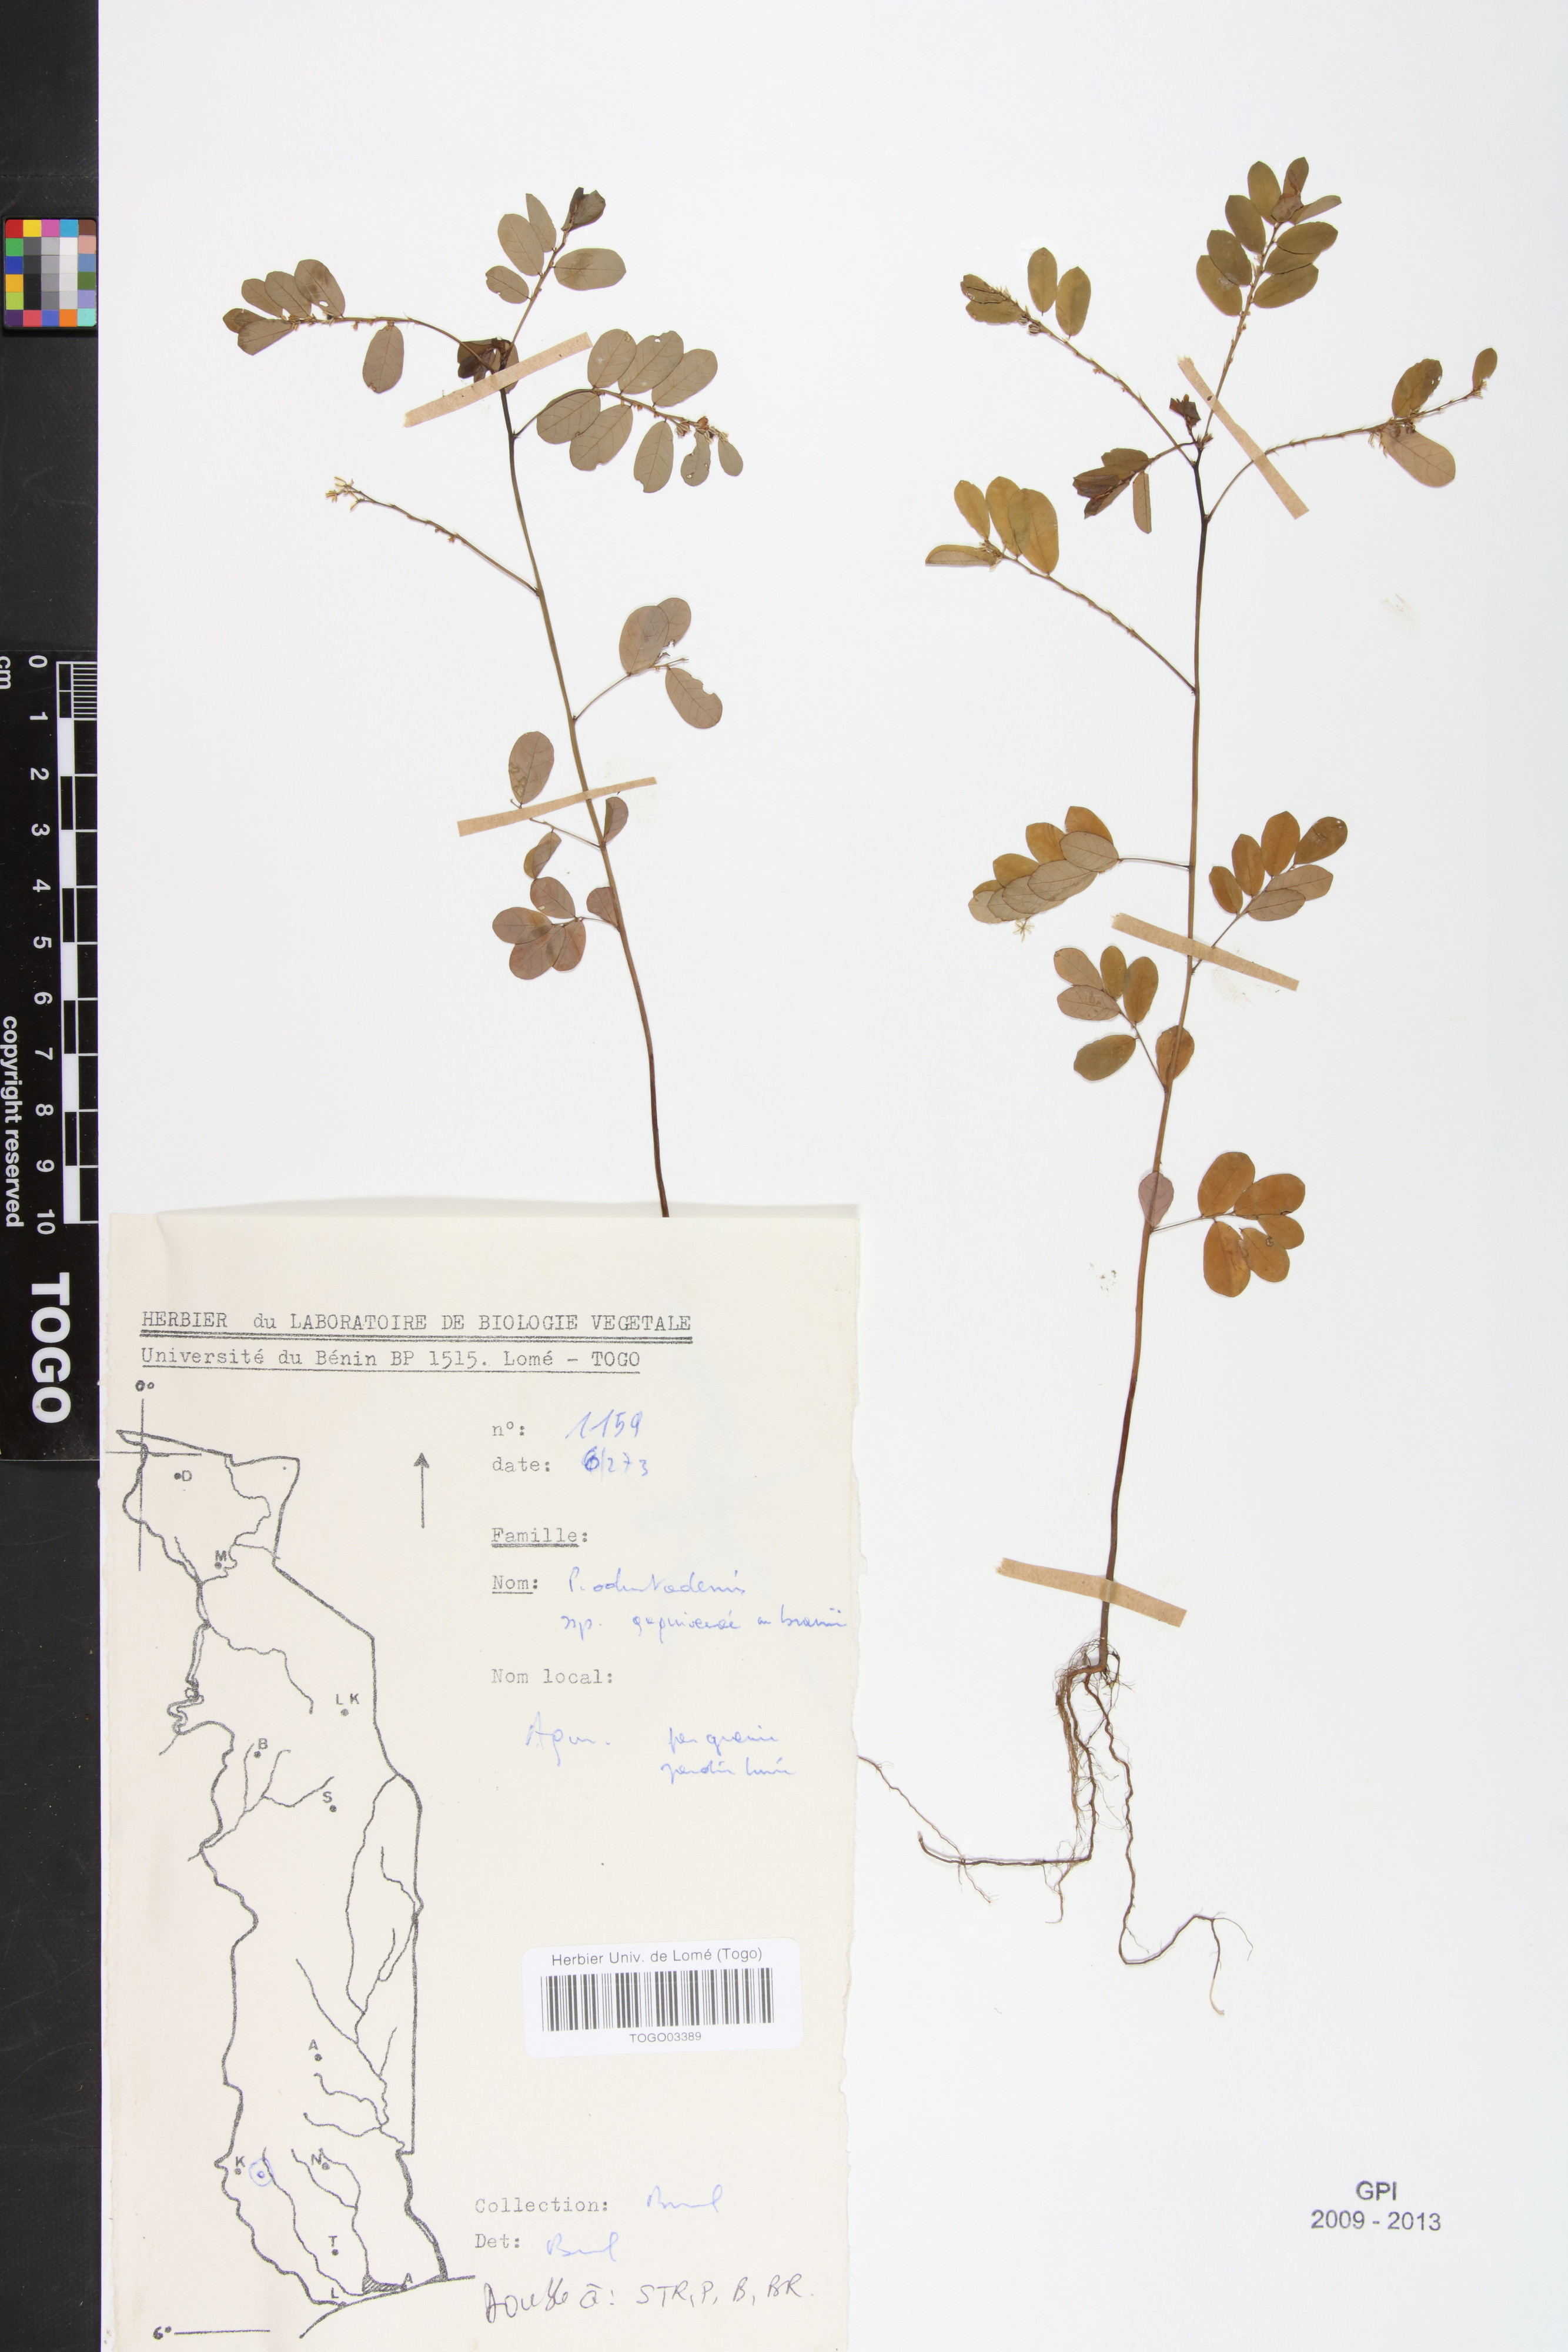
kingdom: Plantae
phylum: Tracheophyta
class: Magnoliopsida
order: Malpighiales
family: Phyllanthaceae
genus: Phyllanthus
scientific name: Phyllanthus odontadenius
